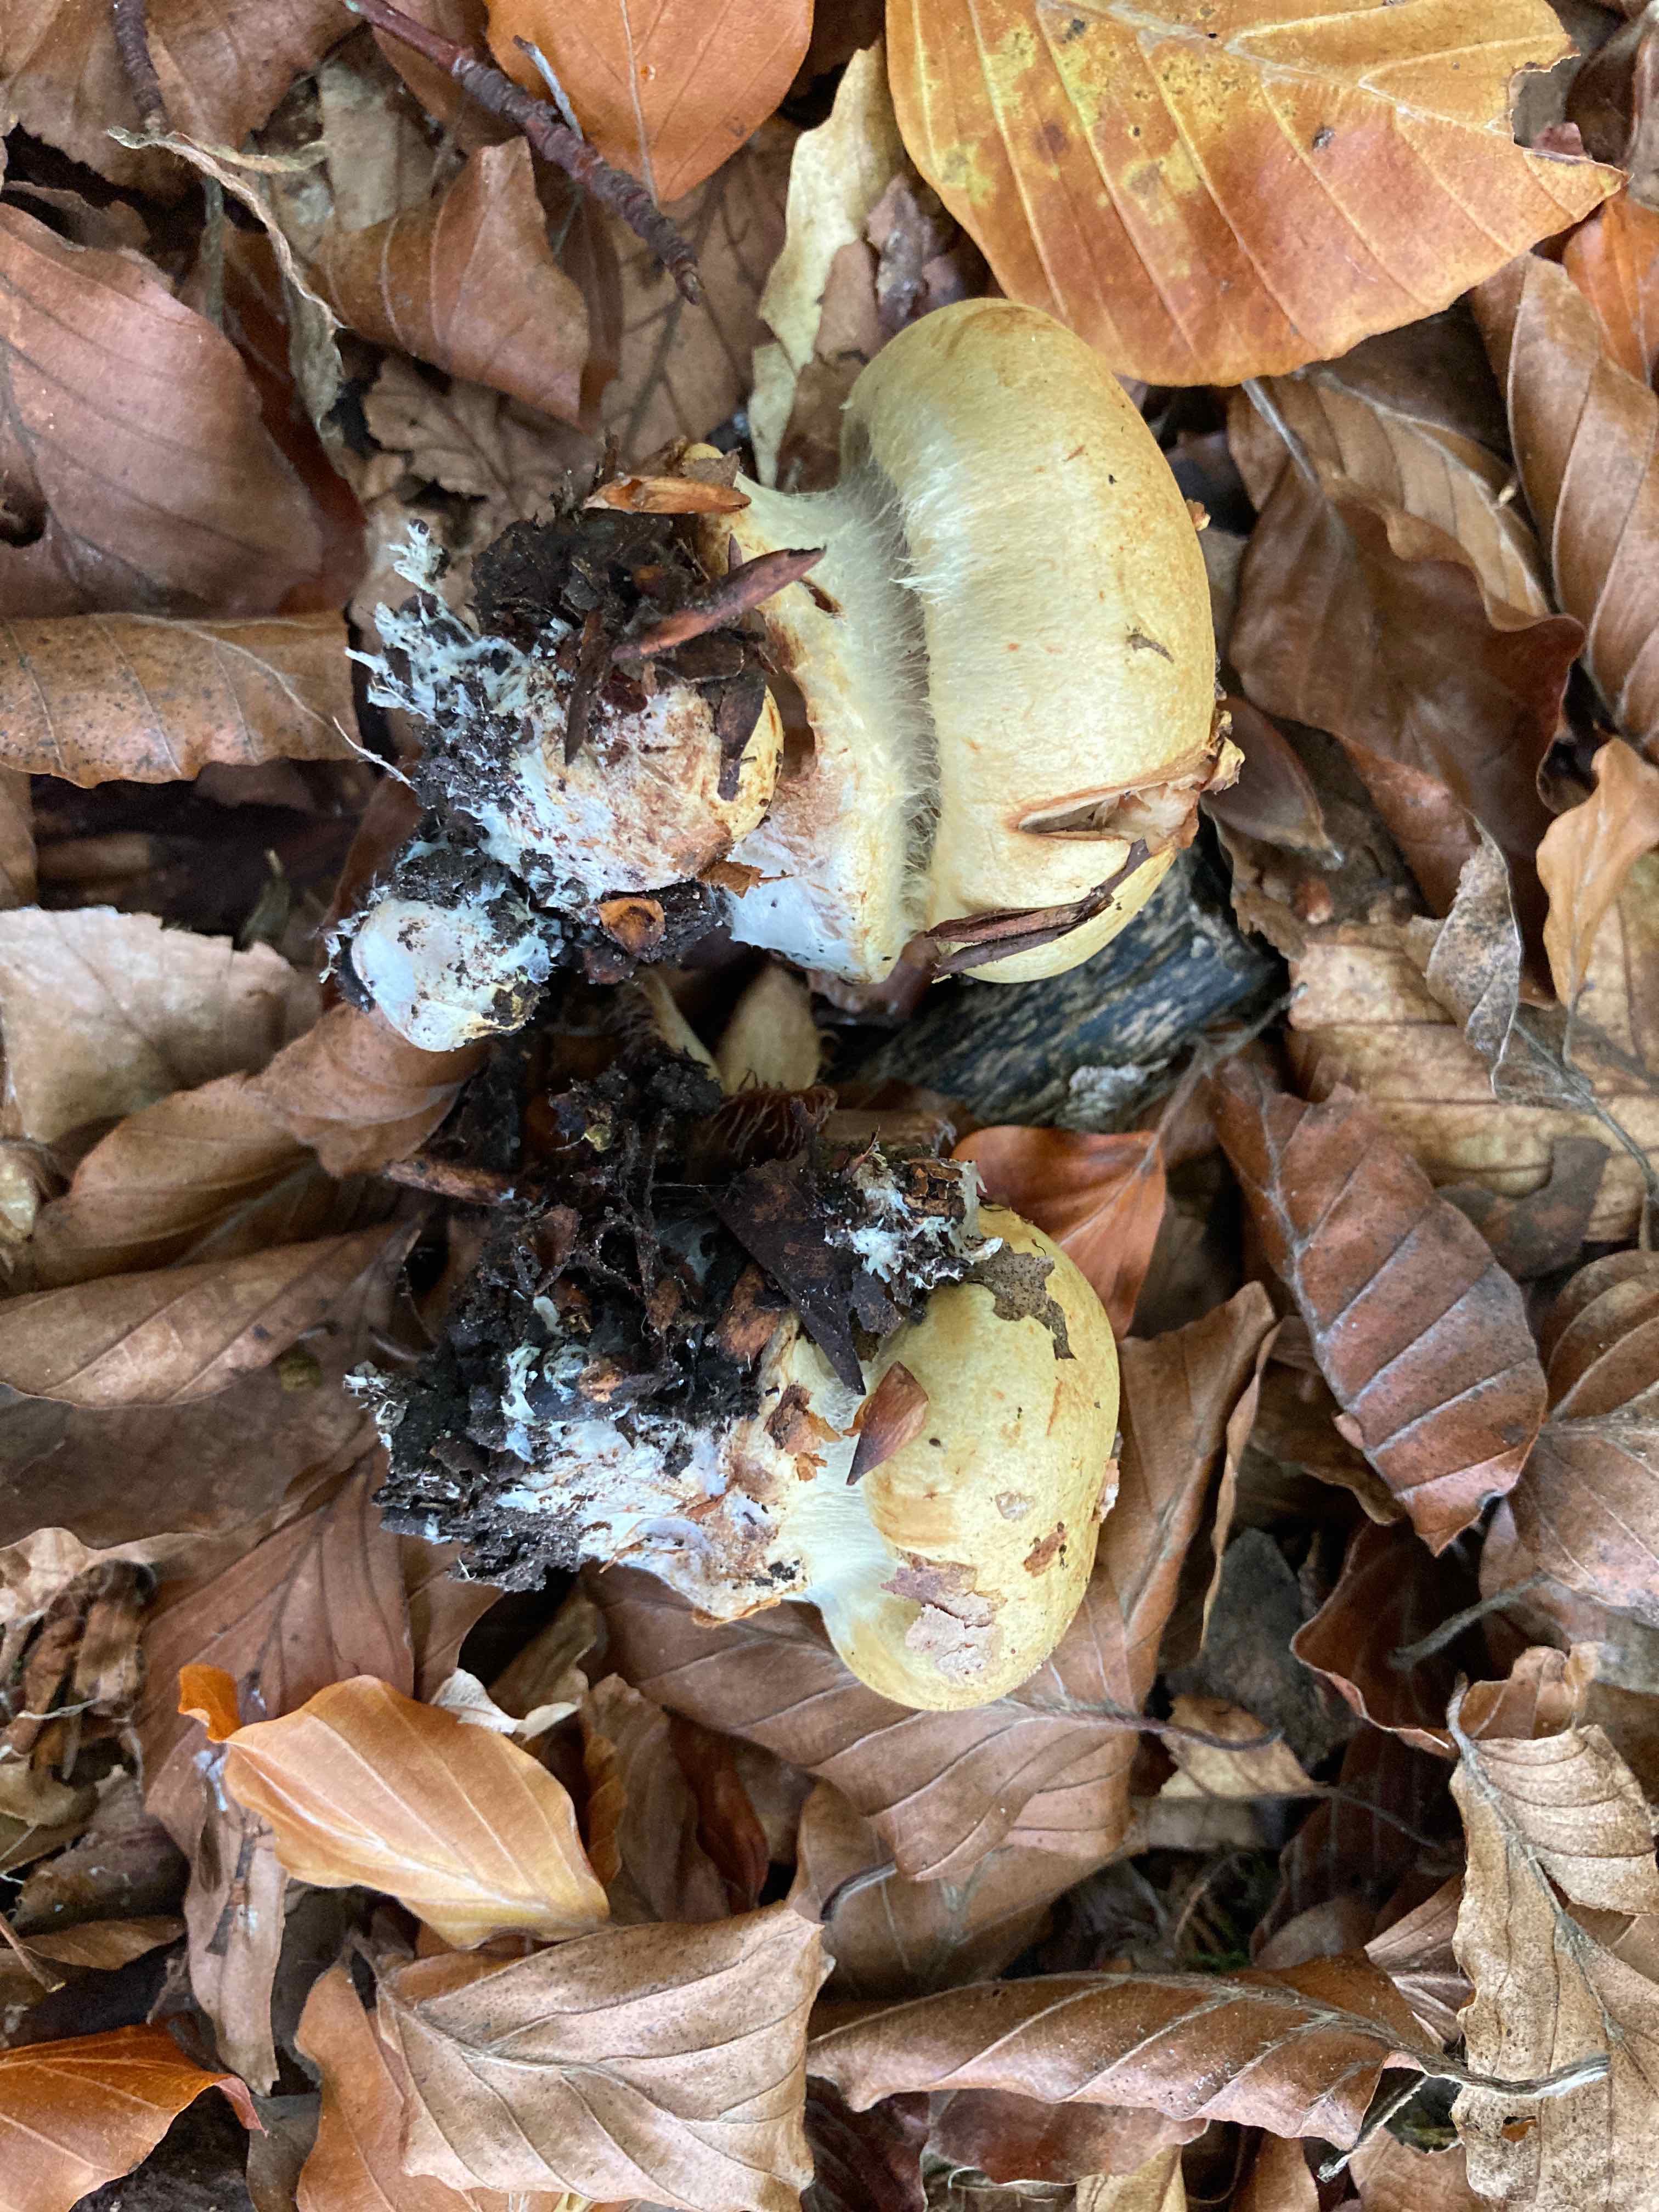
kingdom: Fungi
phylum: Basidiomycota
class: Agaricomycetes
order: Agaricales
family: Cortinariaceae
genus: Calonarius
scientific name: Calonarius callochrous
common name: lillabladet slørhat
